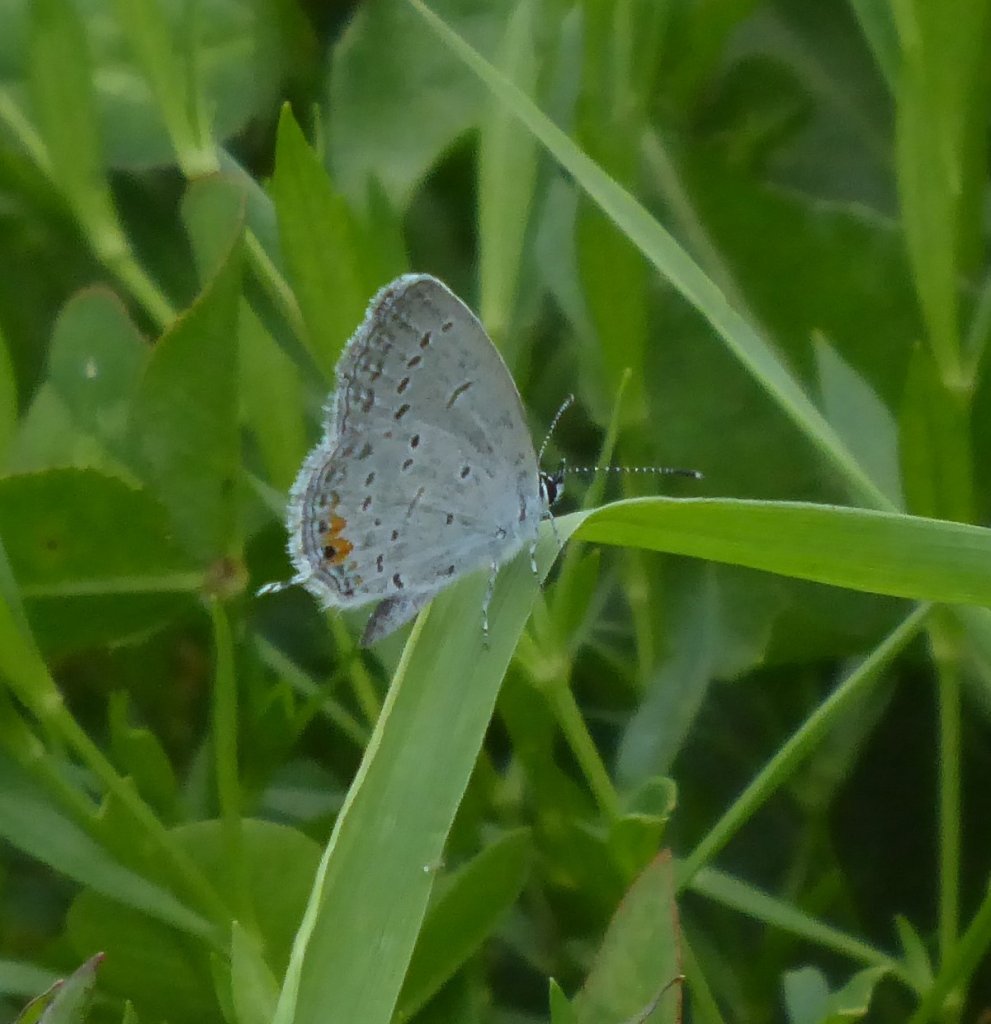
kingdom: Animalia
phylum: Arthropoda
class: Insecta
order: Lepidoptera
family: Lycaenidae
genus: Elkalyce
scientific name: Elkalyce comyntas
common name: Eastern Tailed-Blue
